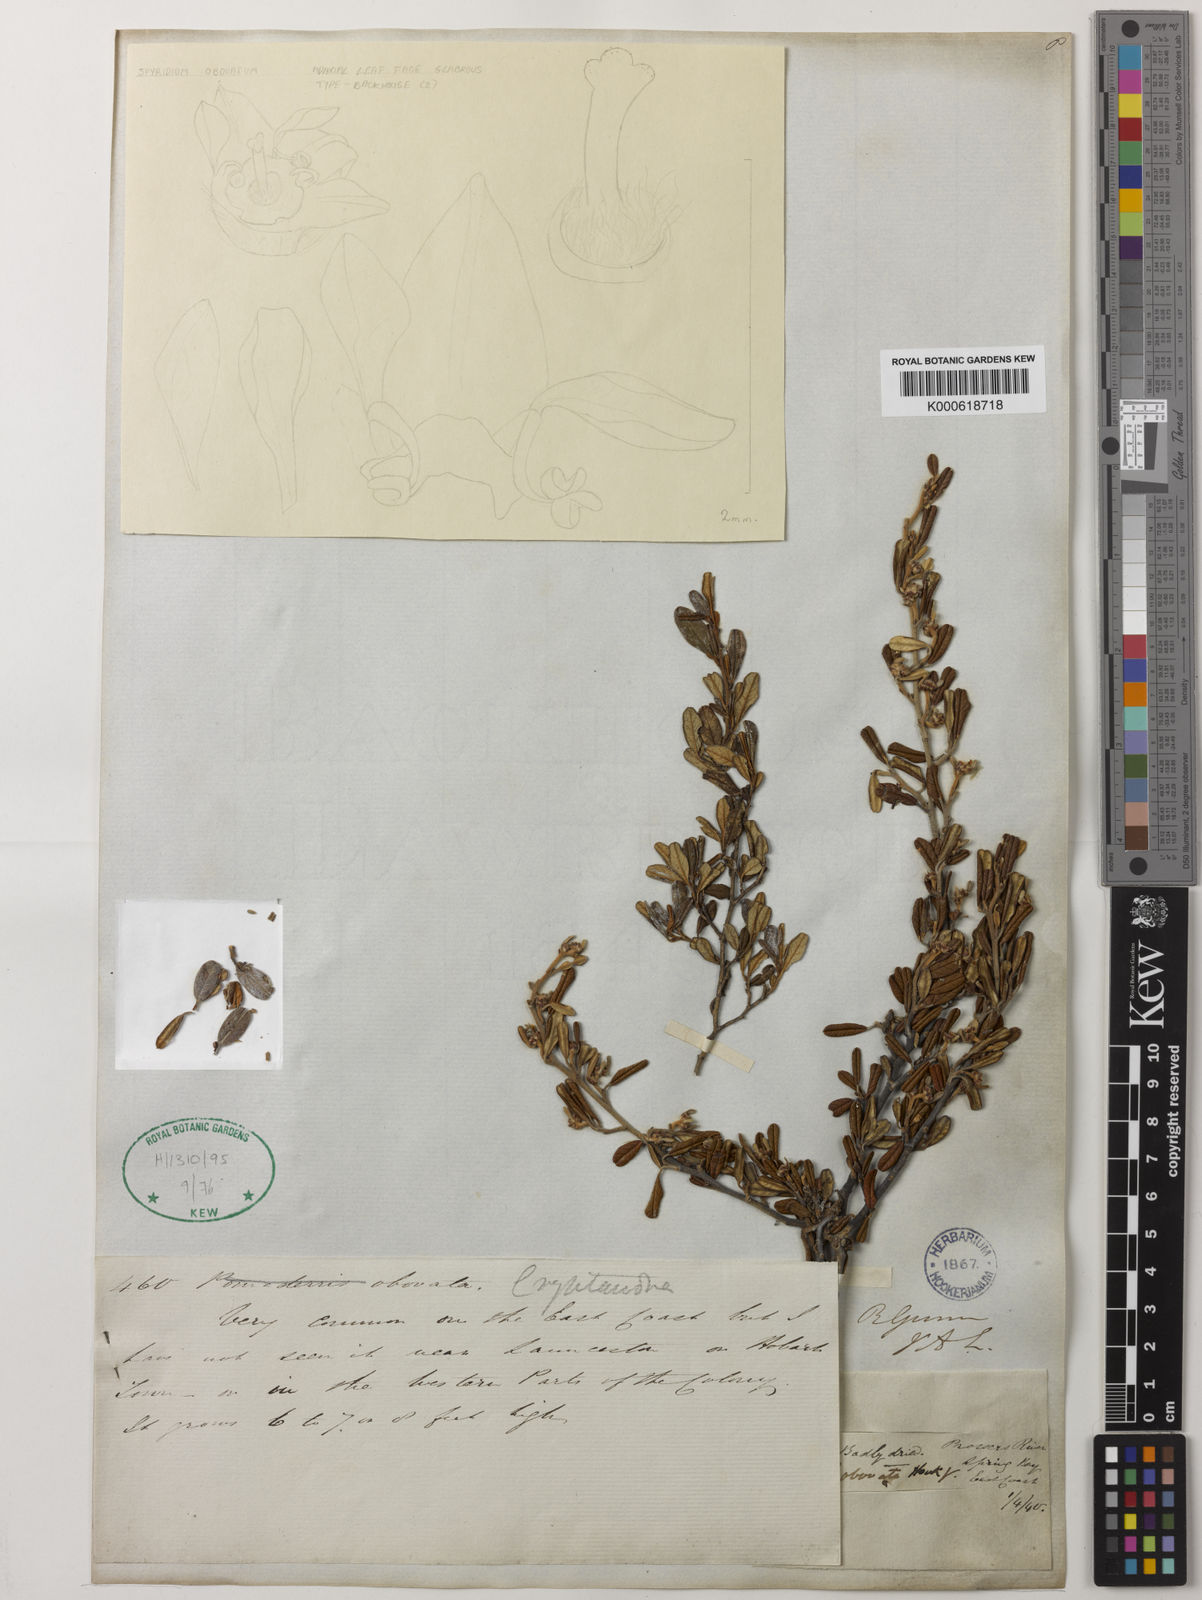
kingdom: Plantae
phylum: Tracheophyta
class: Magnoliopsida
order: Rosales
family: Rhamnaceae
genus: Spyridium
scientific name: Spyridium obovatum
